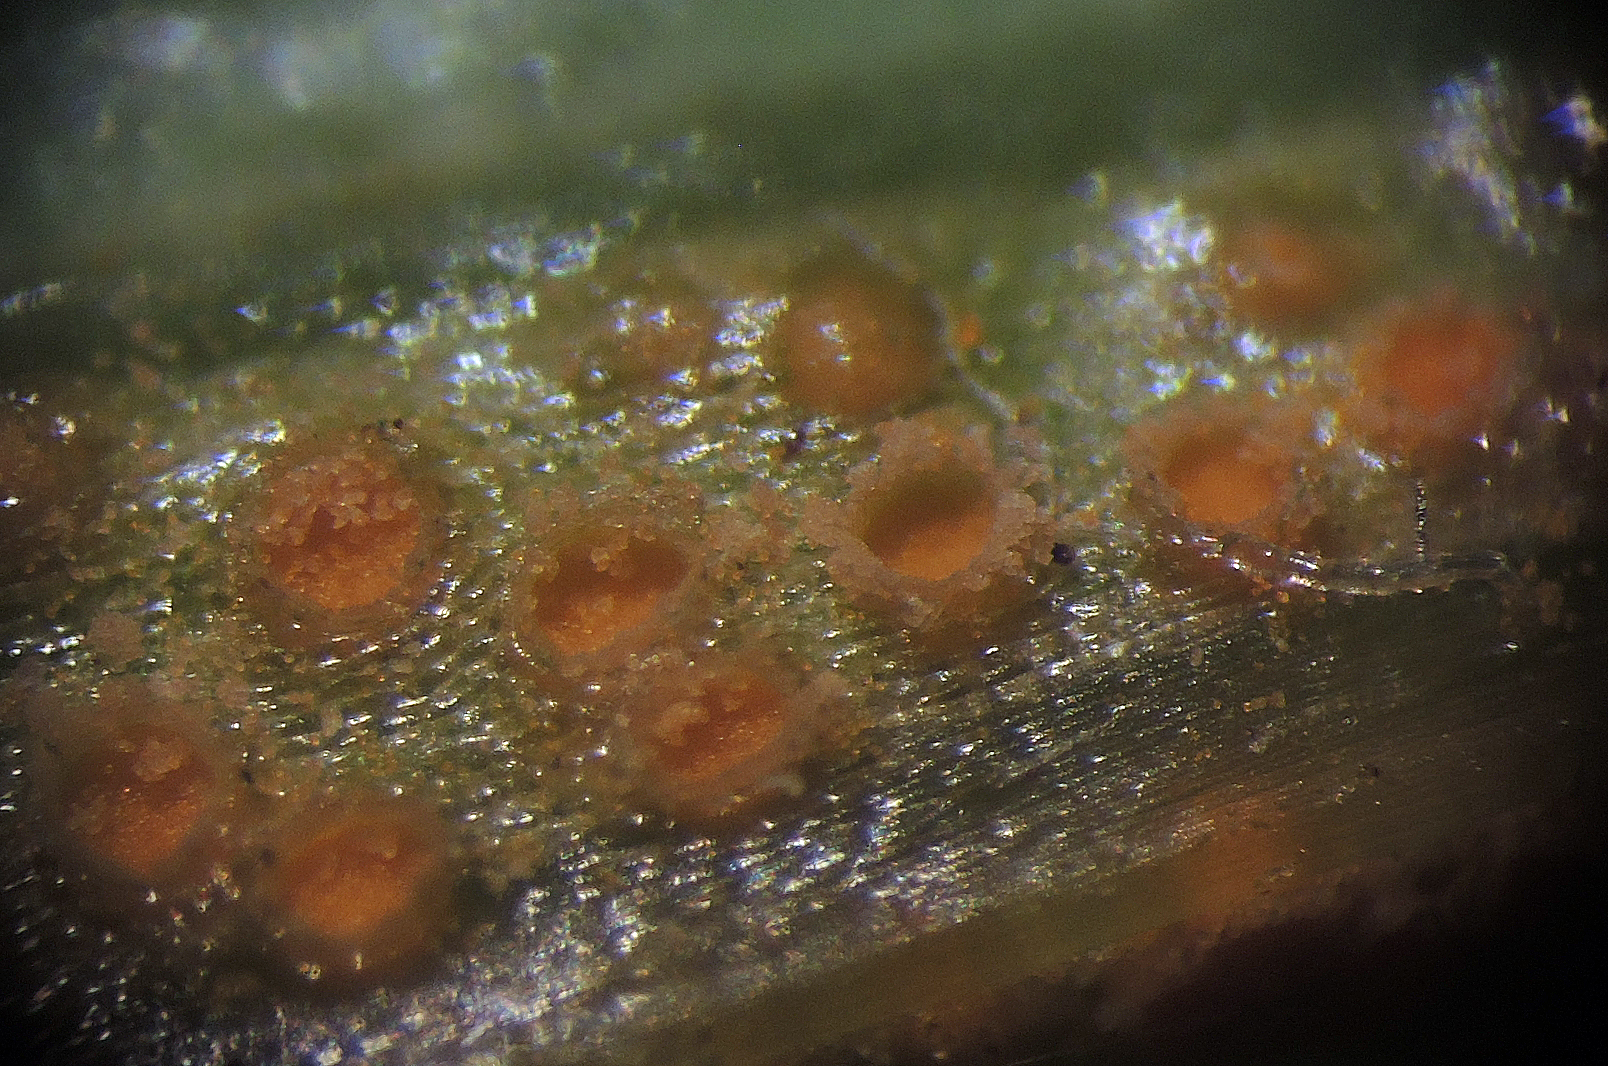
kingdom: Fungi
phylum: Basidiomycota
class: Pucciniomycetes
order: Pucciniales
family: Pucciniaceae
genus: Puccinia
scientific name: Puccinia lagenophorae
